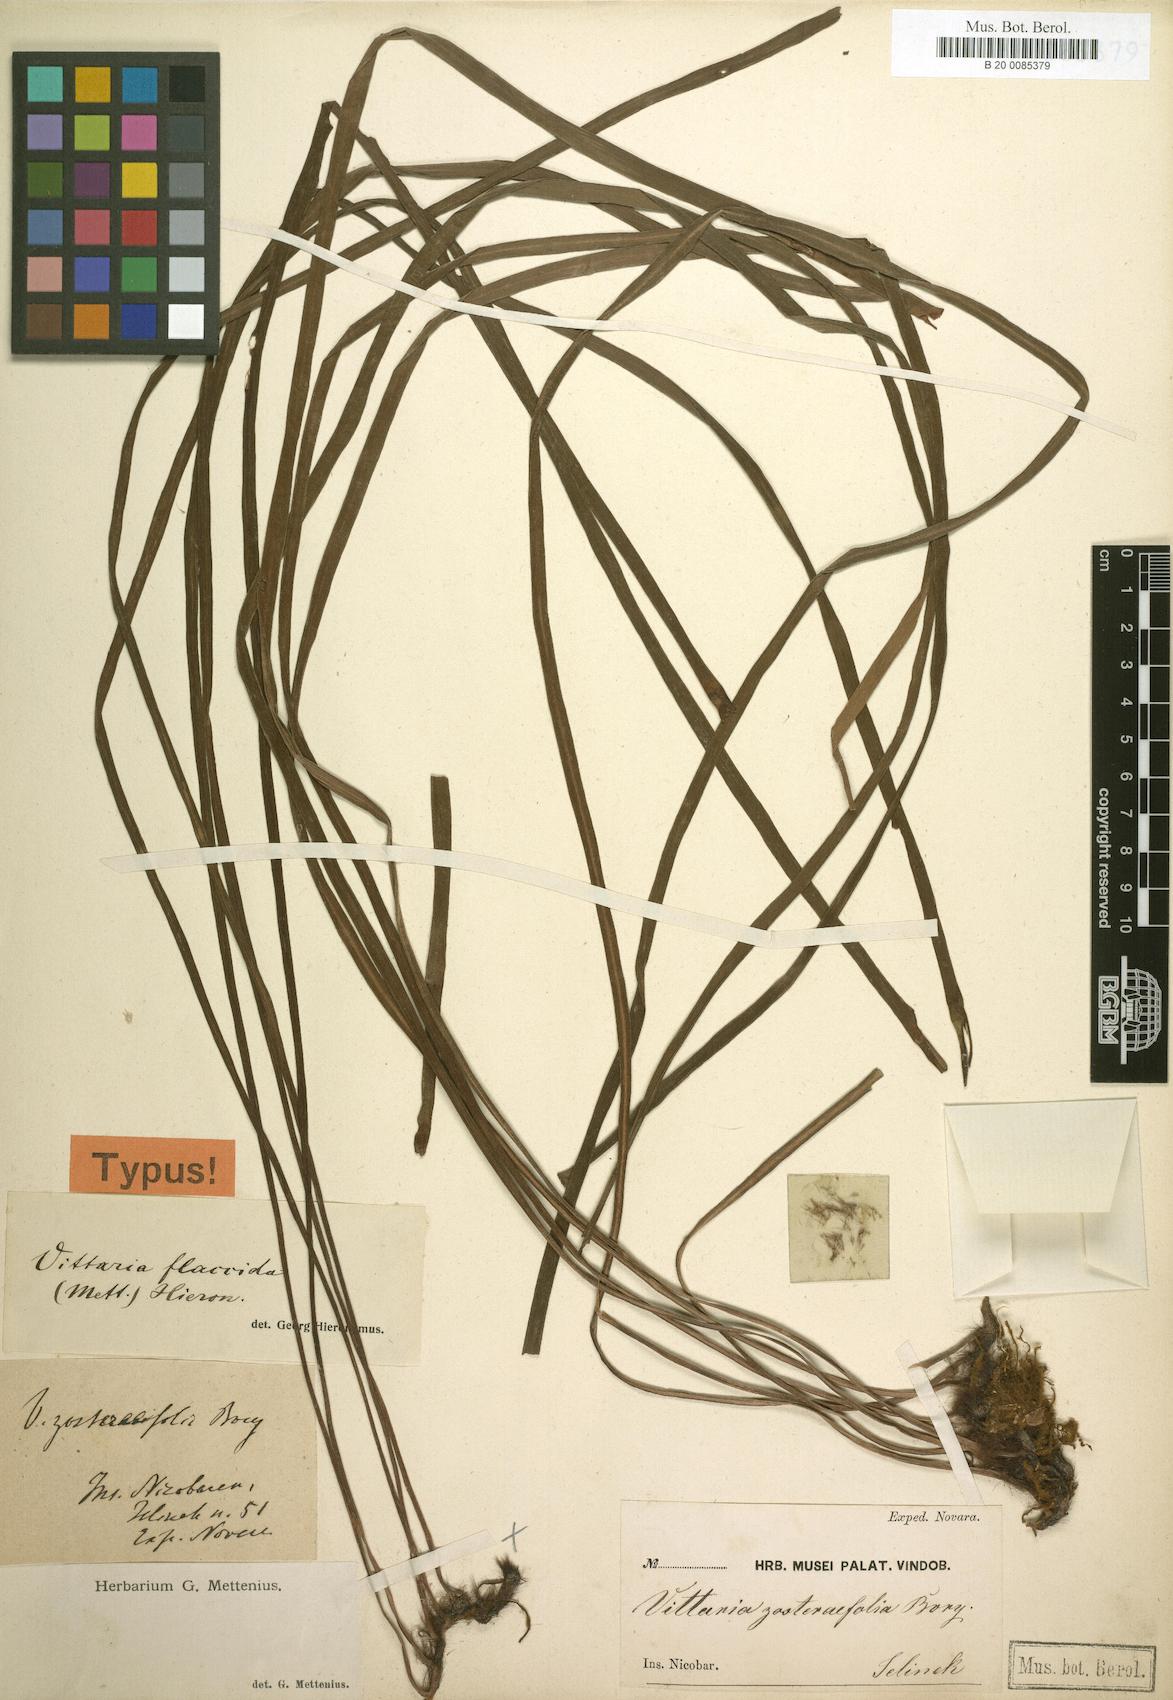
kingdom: Plantae
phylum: Tracheophyta
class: Polypodiopsida
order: Polypodiales
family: Pteridaceae
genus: Haplopteris
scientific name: Haplopteris elongata
